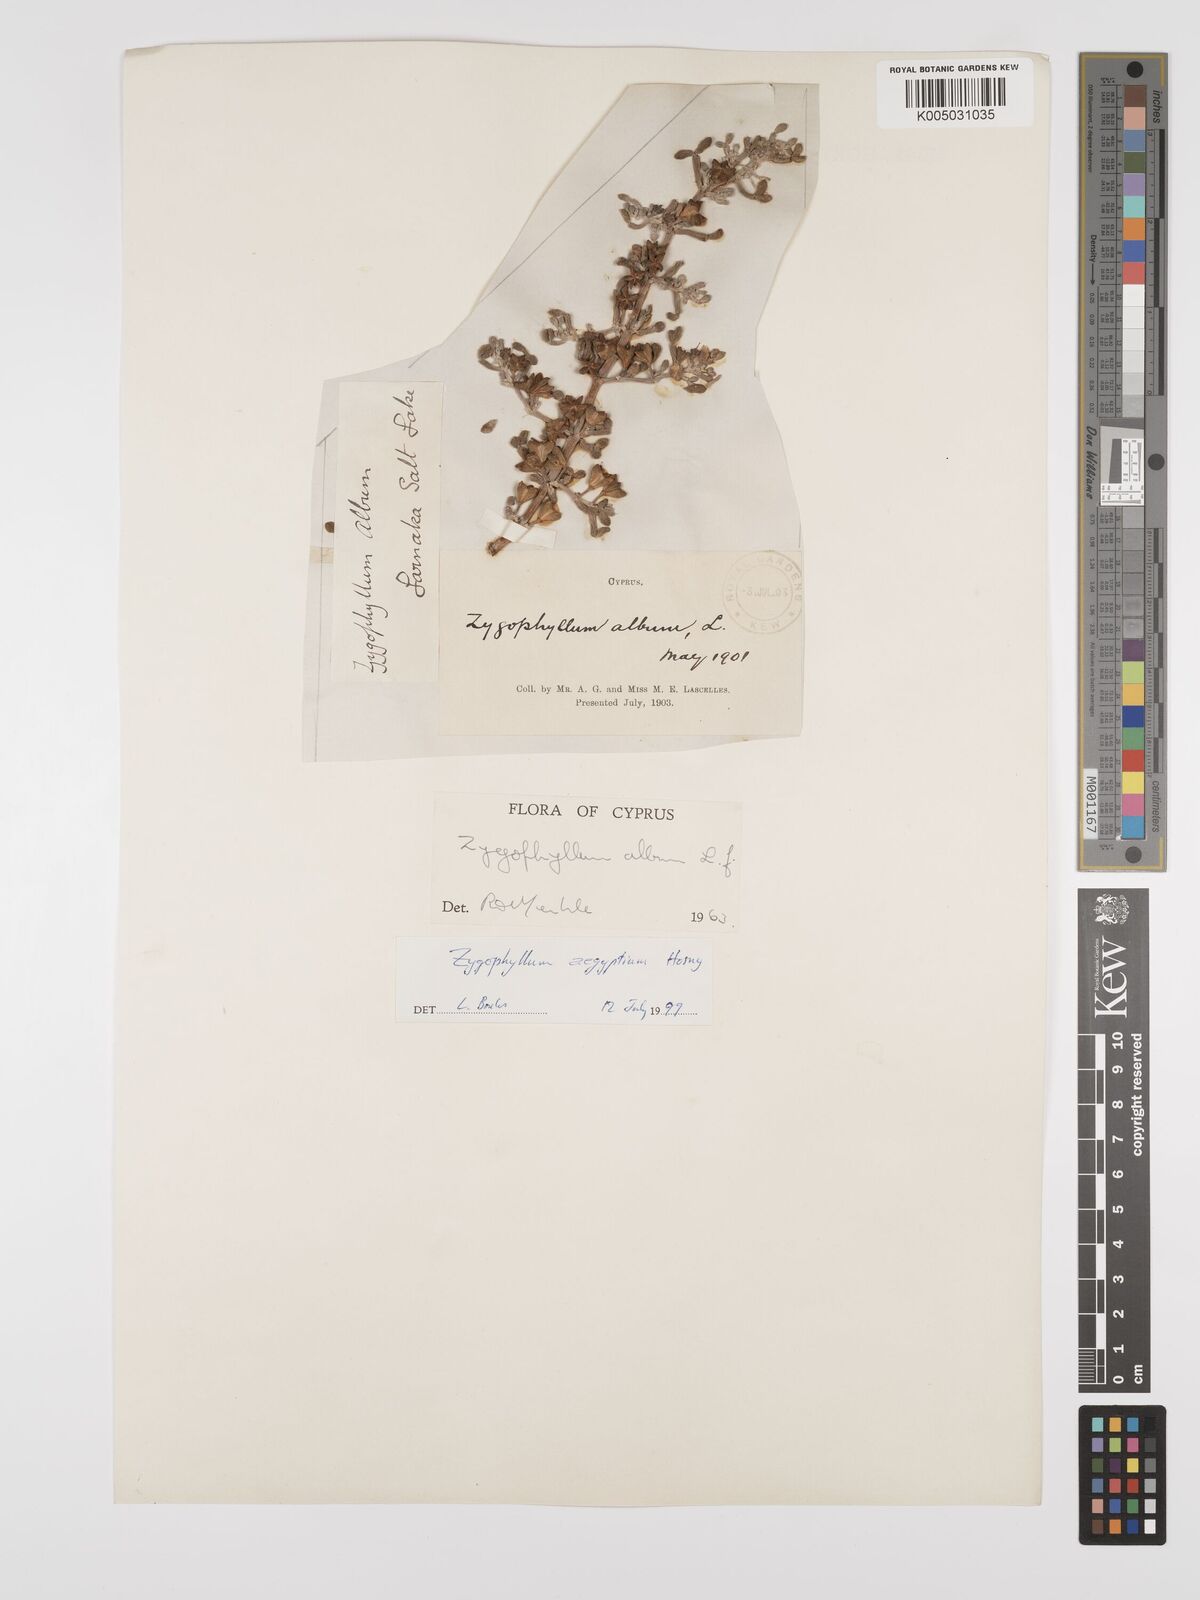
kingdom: Plantae
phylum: Tracheophyta
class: Magnoliopsida
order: Zygophyllales
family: Zygophyllaceae
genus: Zygophyllum
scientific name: Zygophyllum
